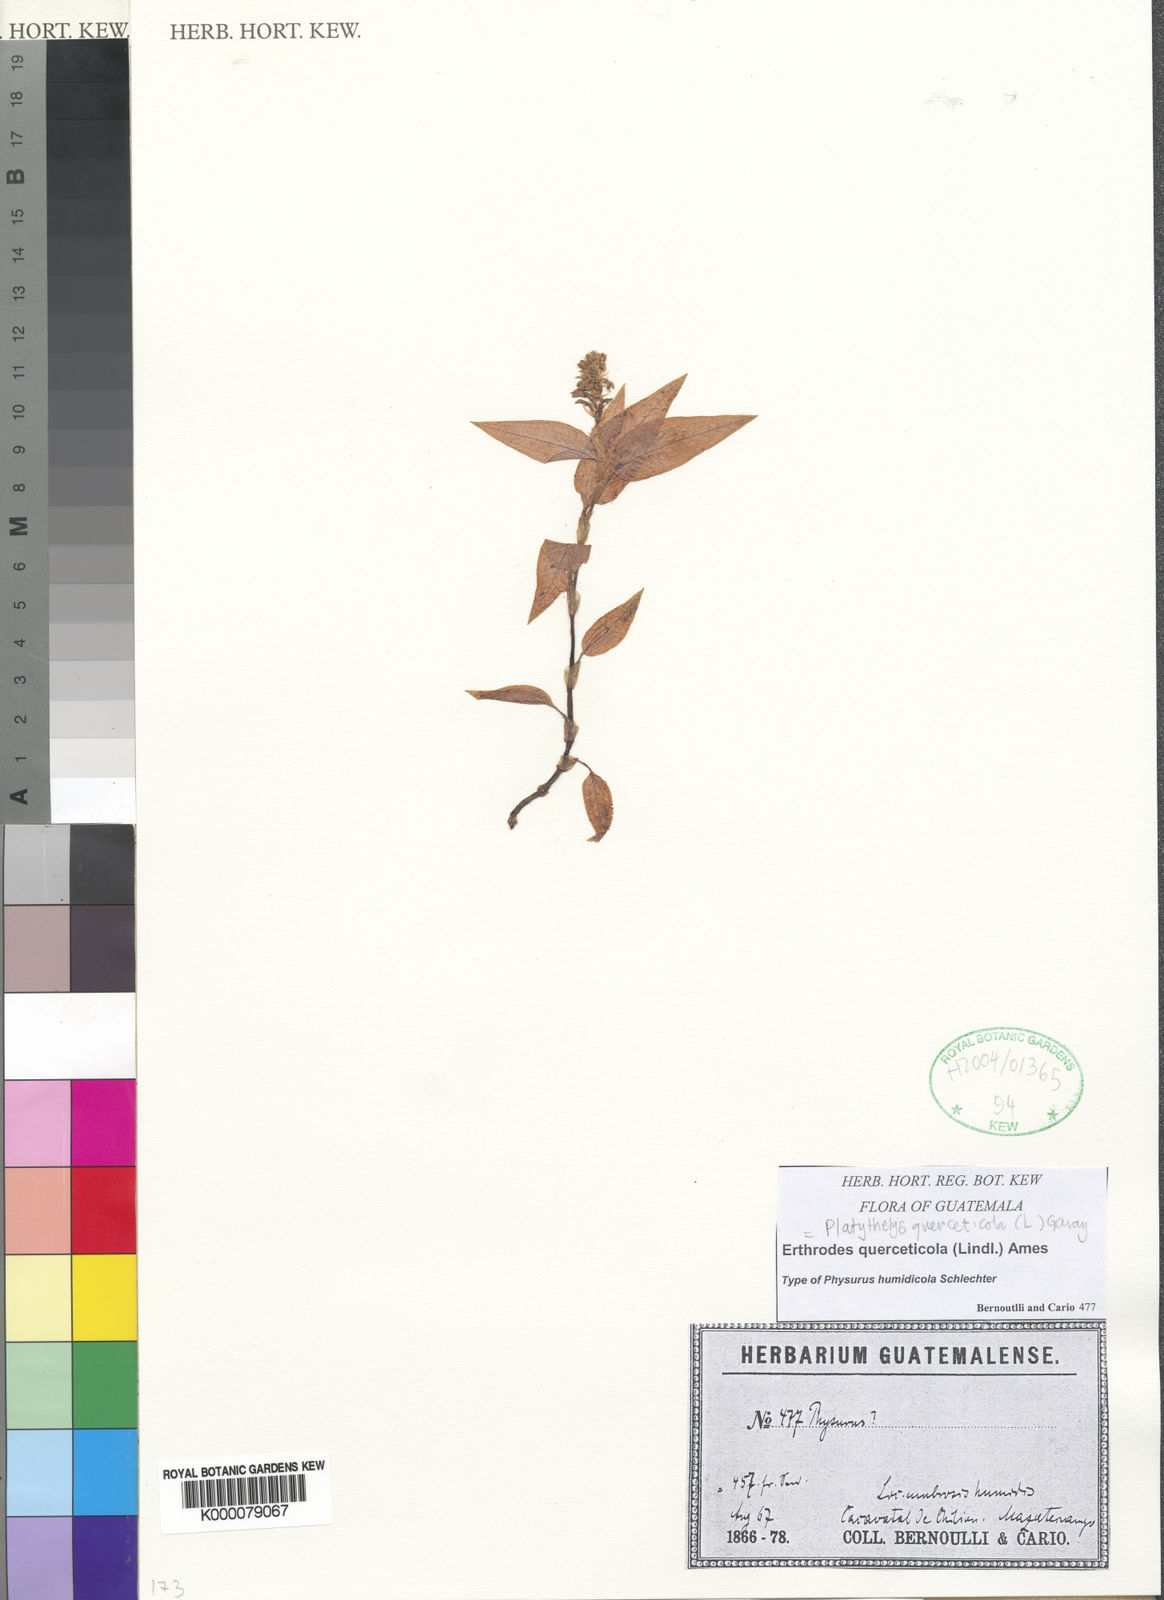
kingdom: Plantae
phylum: Tracheophyta
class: Liliopsida
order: Asparagales
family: Orchidaceae
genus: Aspidogyne
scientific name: Aspidogyne querceticola
